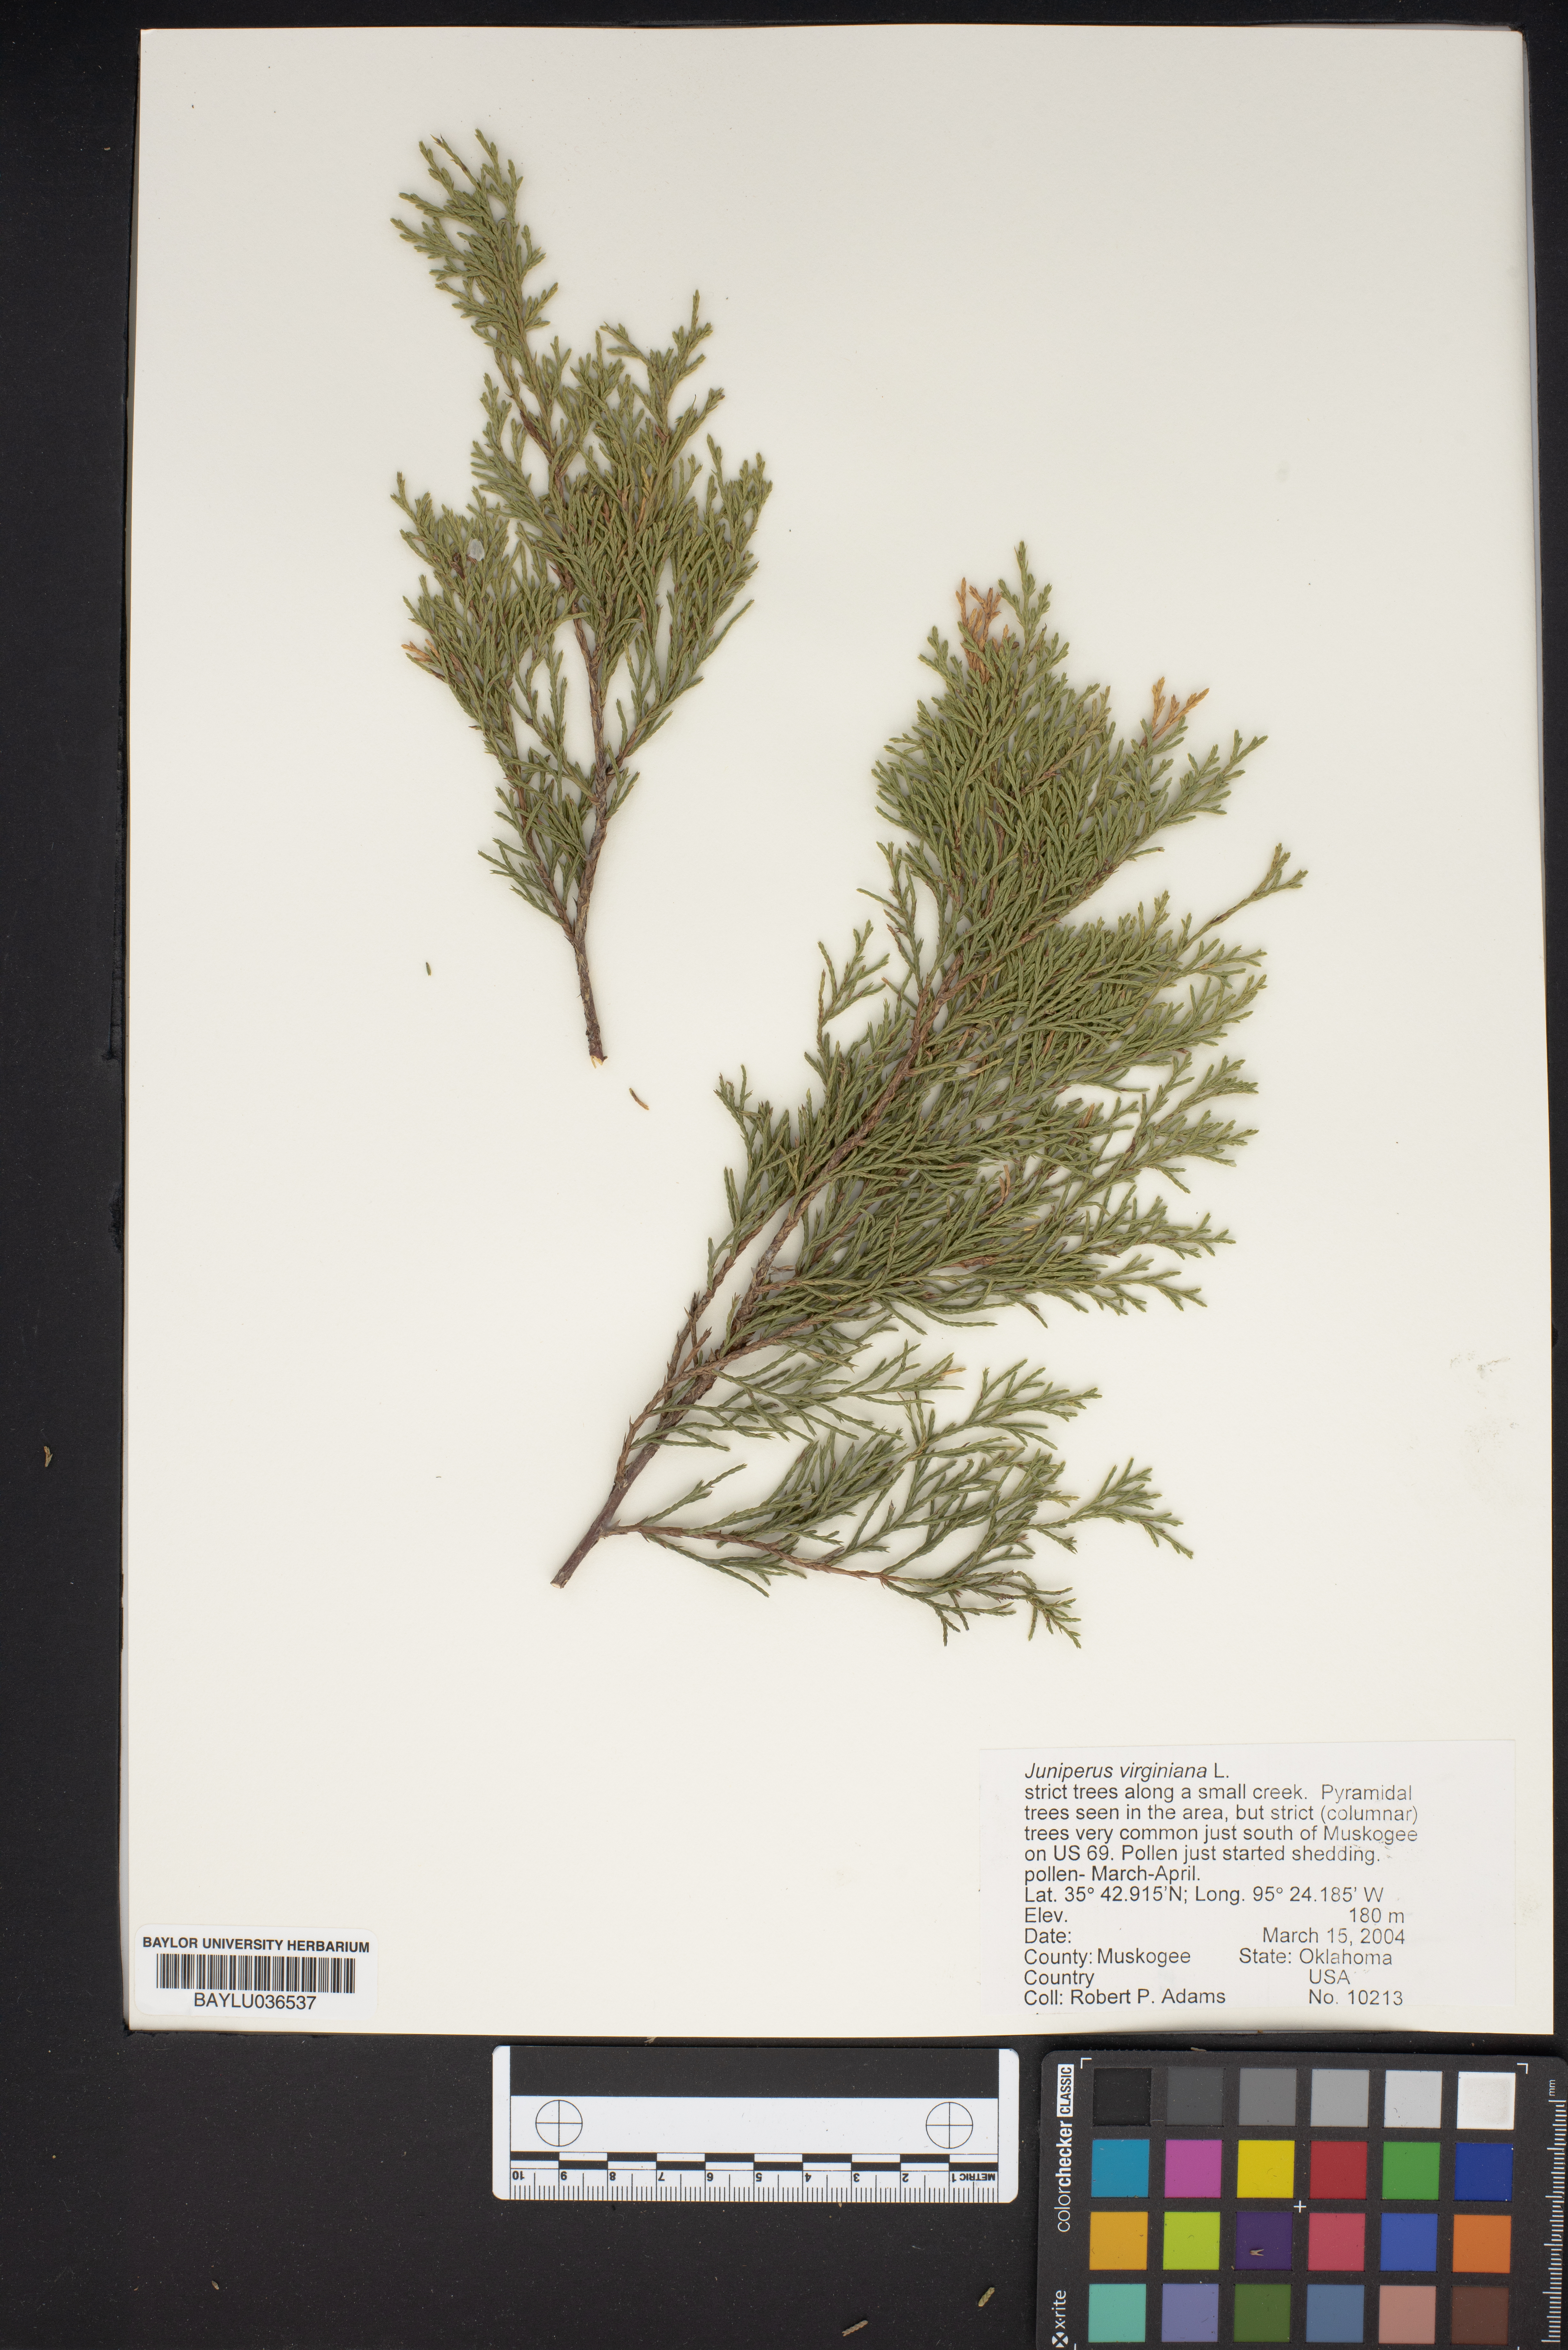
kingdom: Plantae
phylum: Tracheophyta
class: Pinopsida
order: Pinales
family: Cupressaceae
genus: Juniperus
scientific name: Juniperus virginiana
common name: Red juniper
